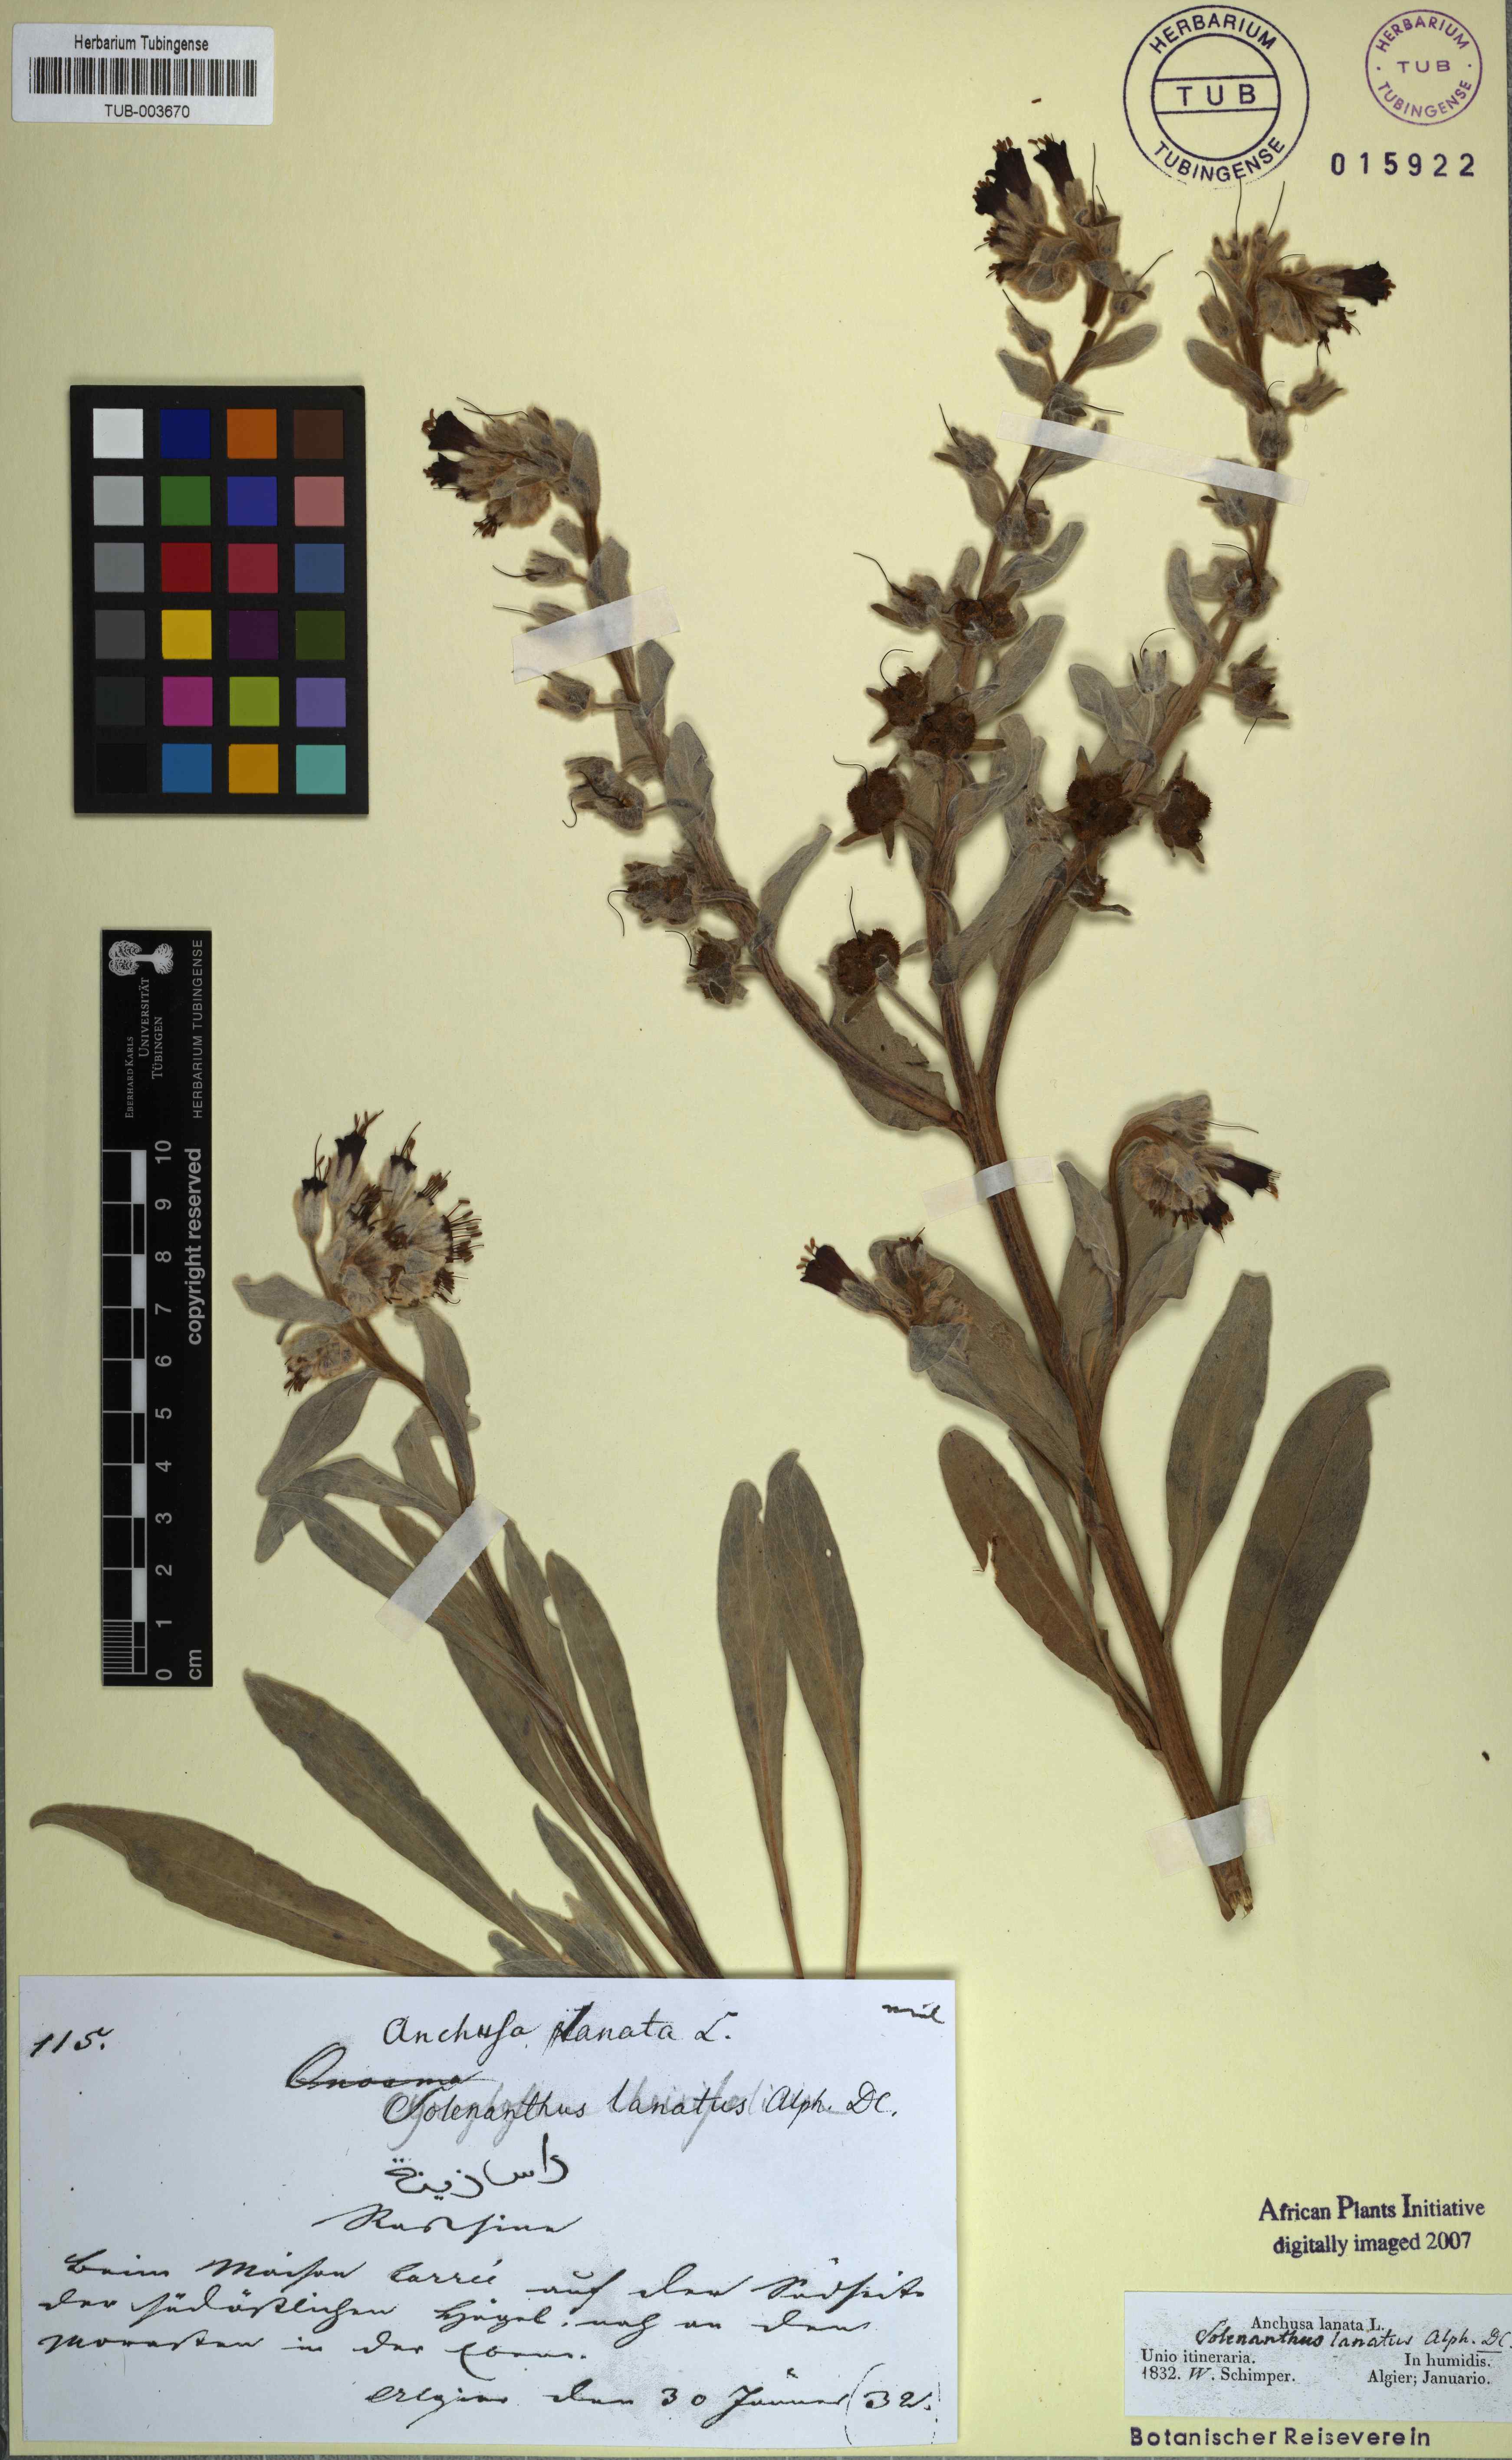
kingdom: Plantae
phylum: Tracheophyta
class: Magnoliopsida
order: Boraginales
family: Boraginaceae
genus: Pardoglossum
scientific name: Pardoglossum lanatum
